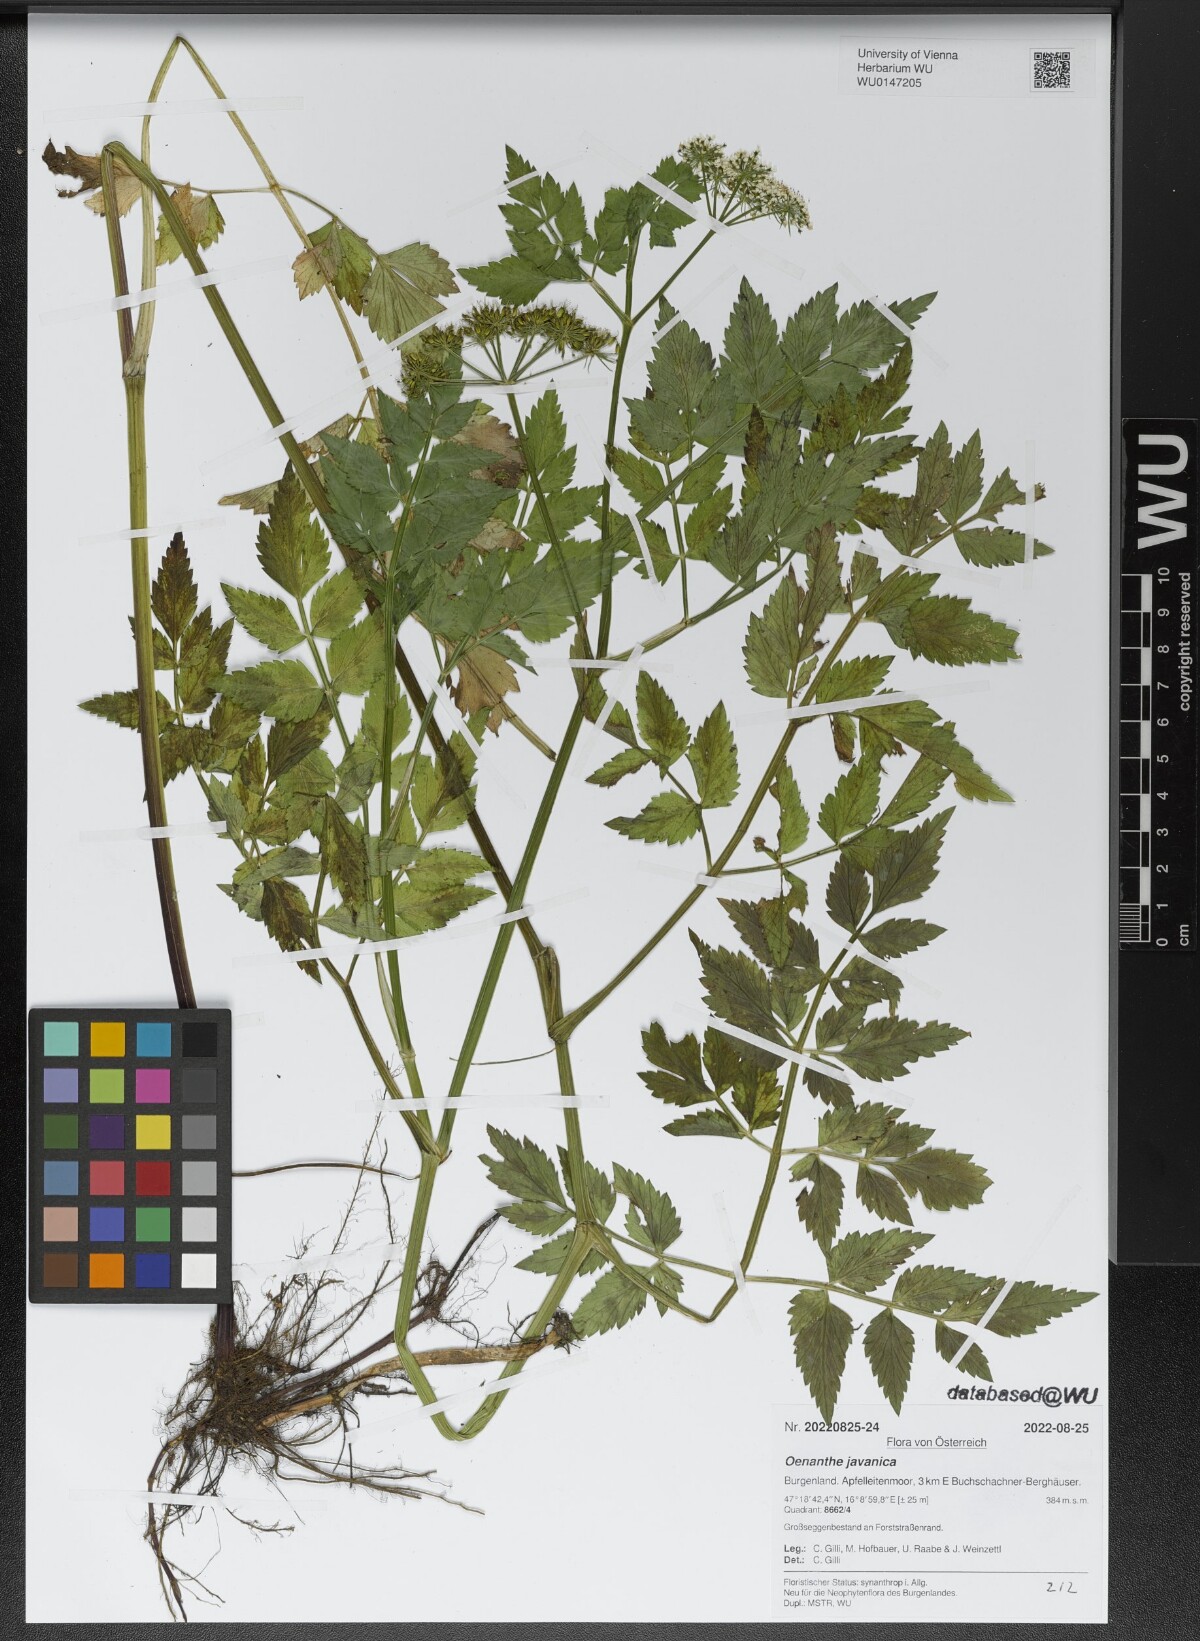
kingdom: Plantae
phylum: Tracheophyta
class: Magnoliopsida
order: Apiales
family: Apiaceae
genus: Oenanthe
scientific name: Oenanthe javanica
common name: Java water-dropwort
